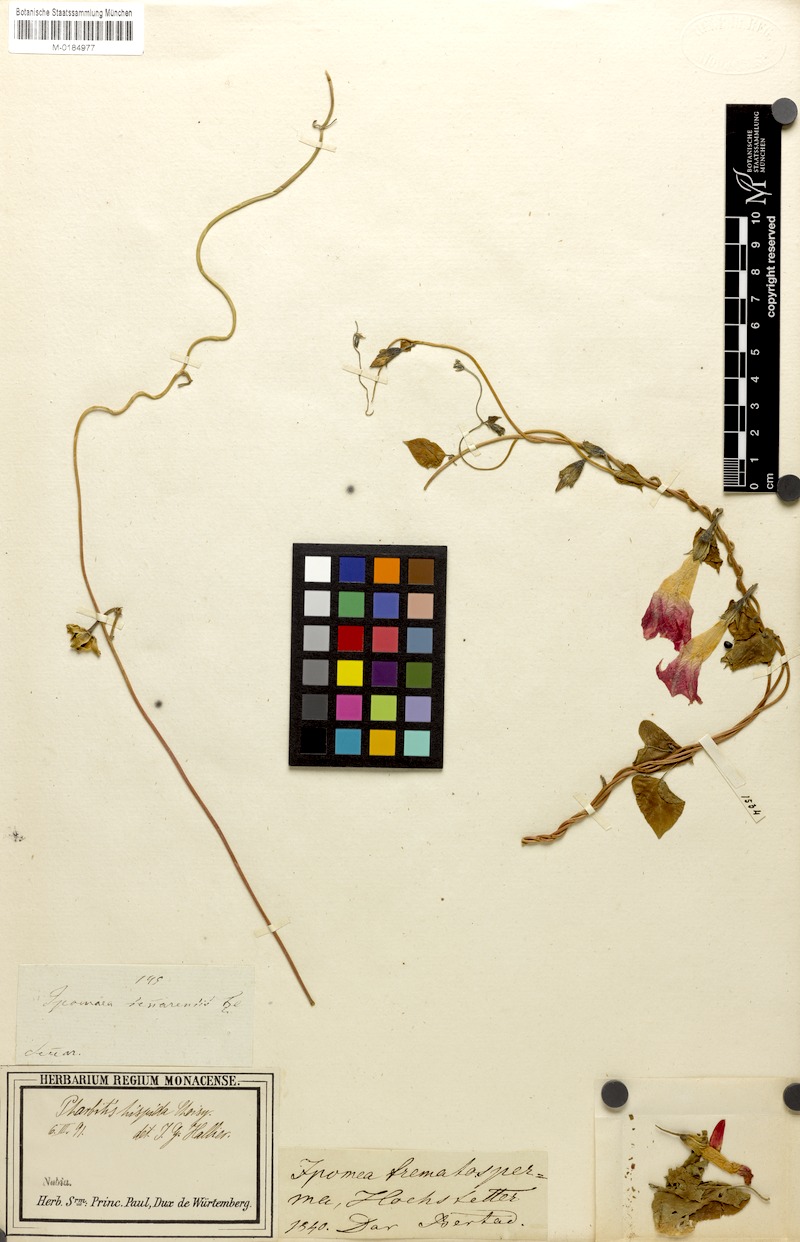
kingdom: Plantae
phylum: Tracheophyta
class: Magnoliopsida
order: Solanales
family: Convolvulaceae
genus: Ipomoea
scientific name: Ipomoea purpurea
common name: Common morning-glory
